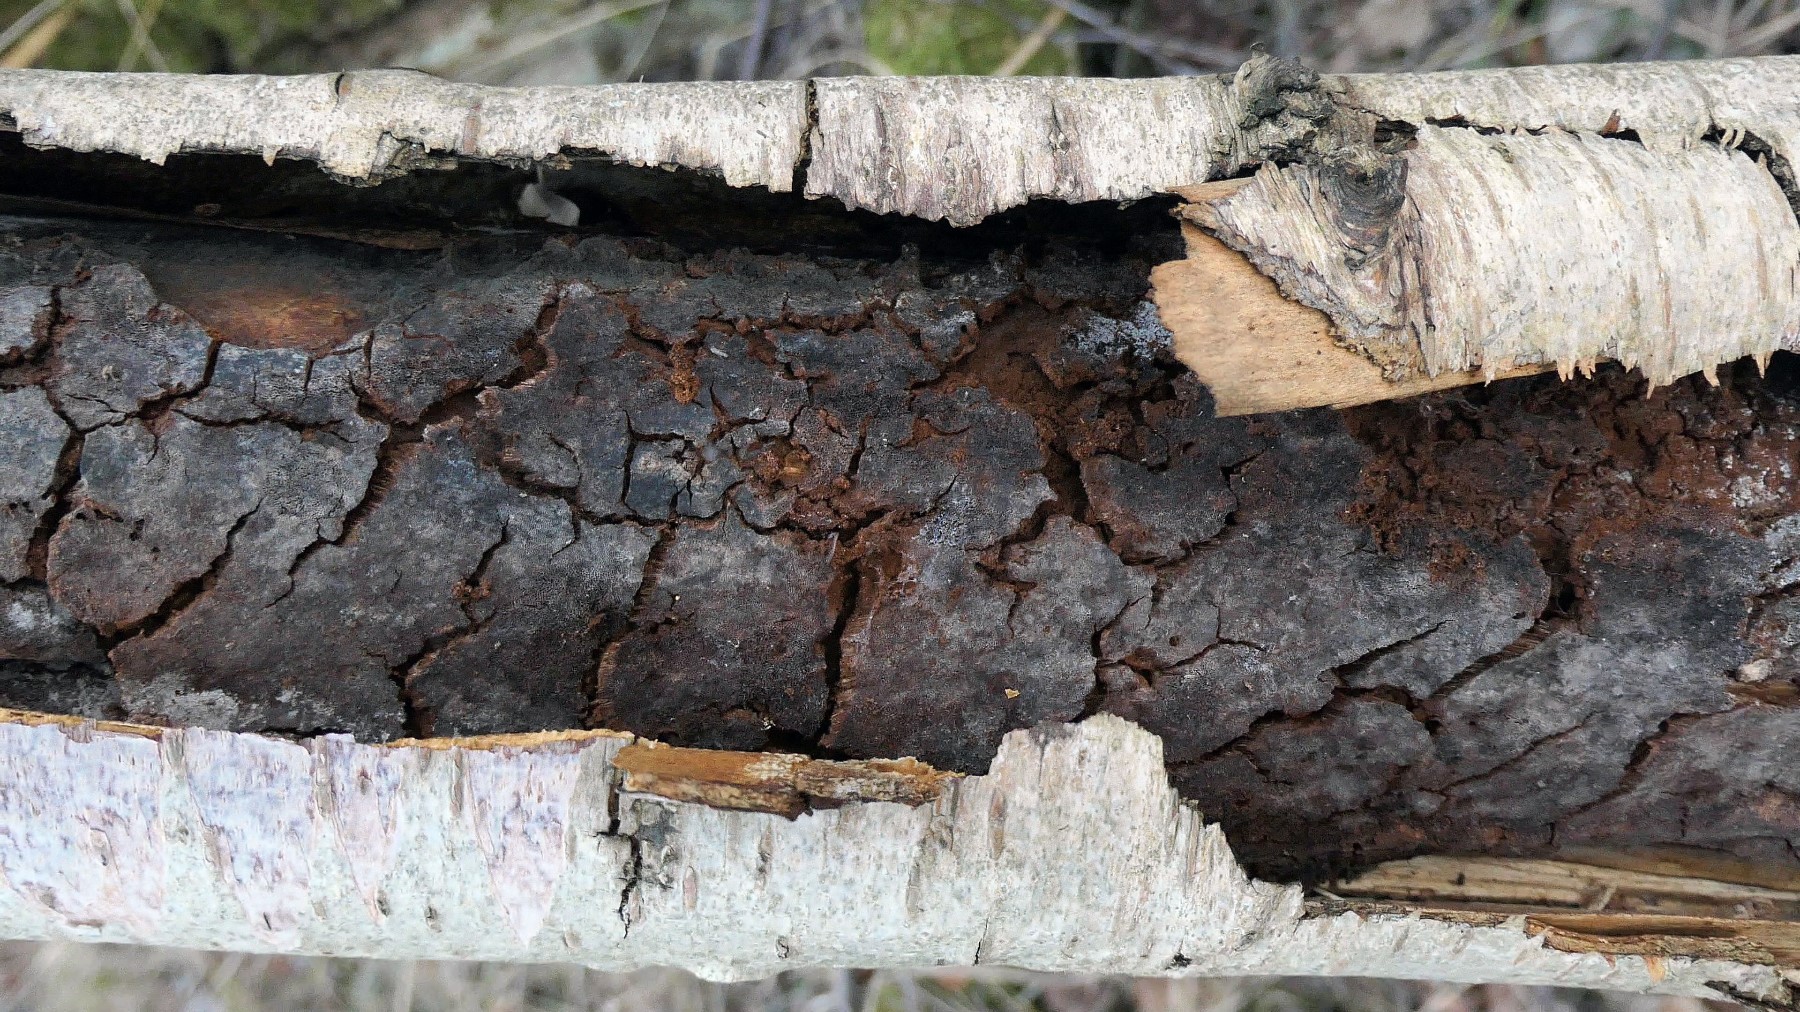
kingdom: Fungi
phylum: Basidiomycota
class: Agaricomycetes
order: Hymenochaetales
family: Hymenochaetaceae
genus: Inonotus
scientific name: Inonotus obliquus
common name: birke-spejlporesvamp
